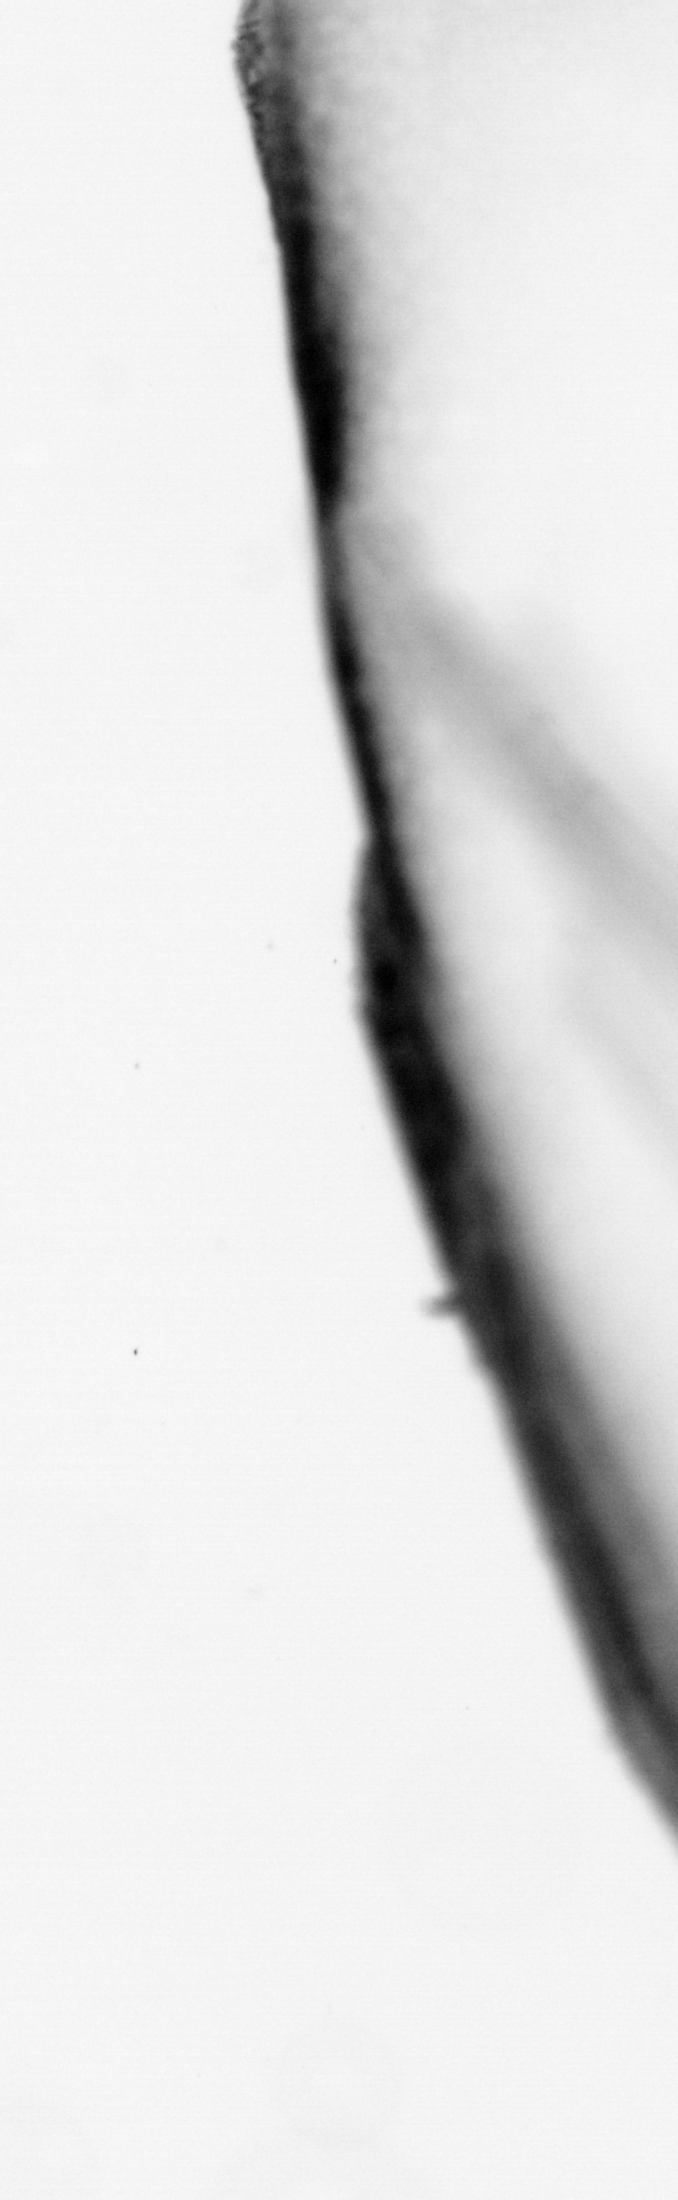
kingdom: Animalia
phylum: Chordata
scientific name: Chordata
